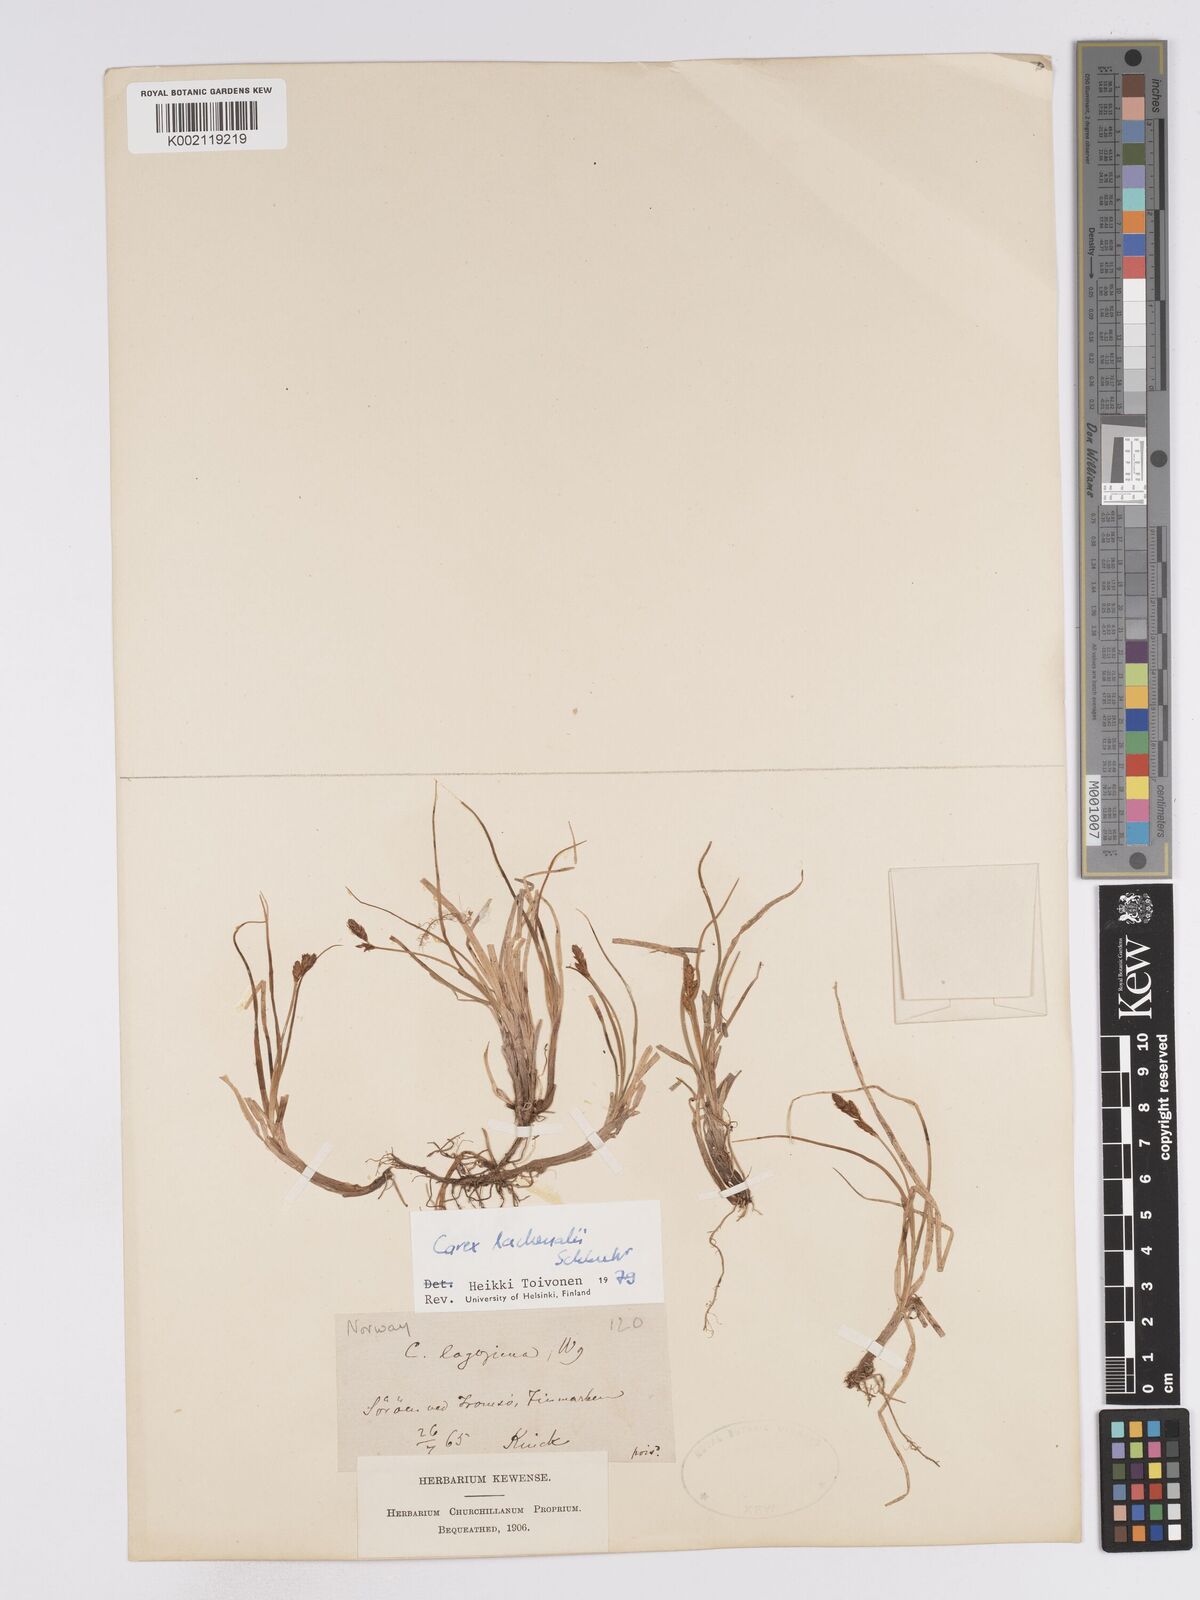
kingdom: Plantae
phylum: Tracheophyta
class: Liliopsida
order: Poales
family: Cyperaceae
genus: Carex
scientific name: Carex lachenalii
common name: Hare's-foot sedge
